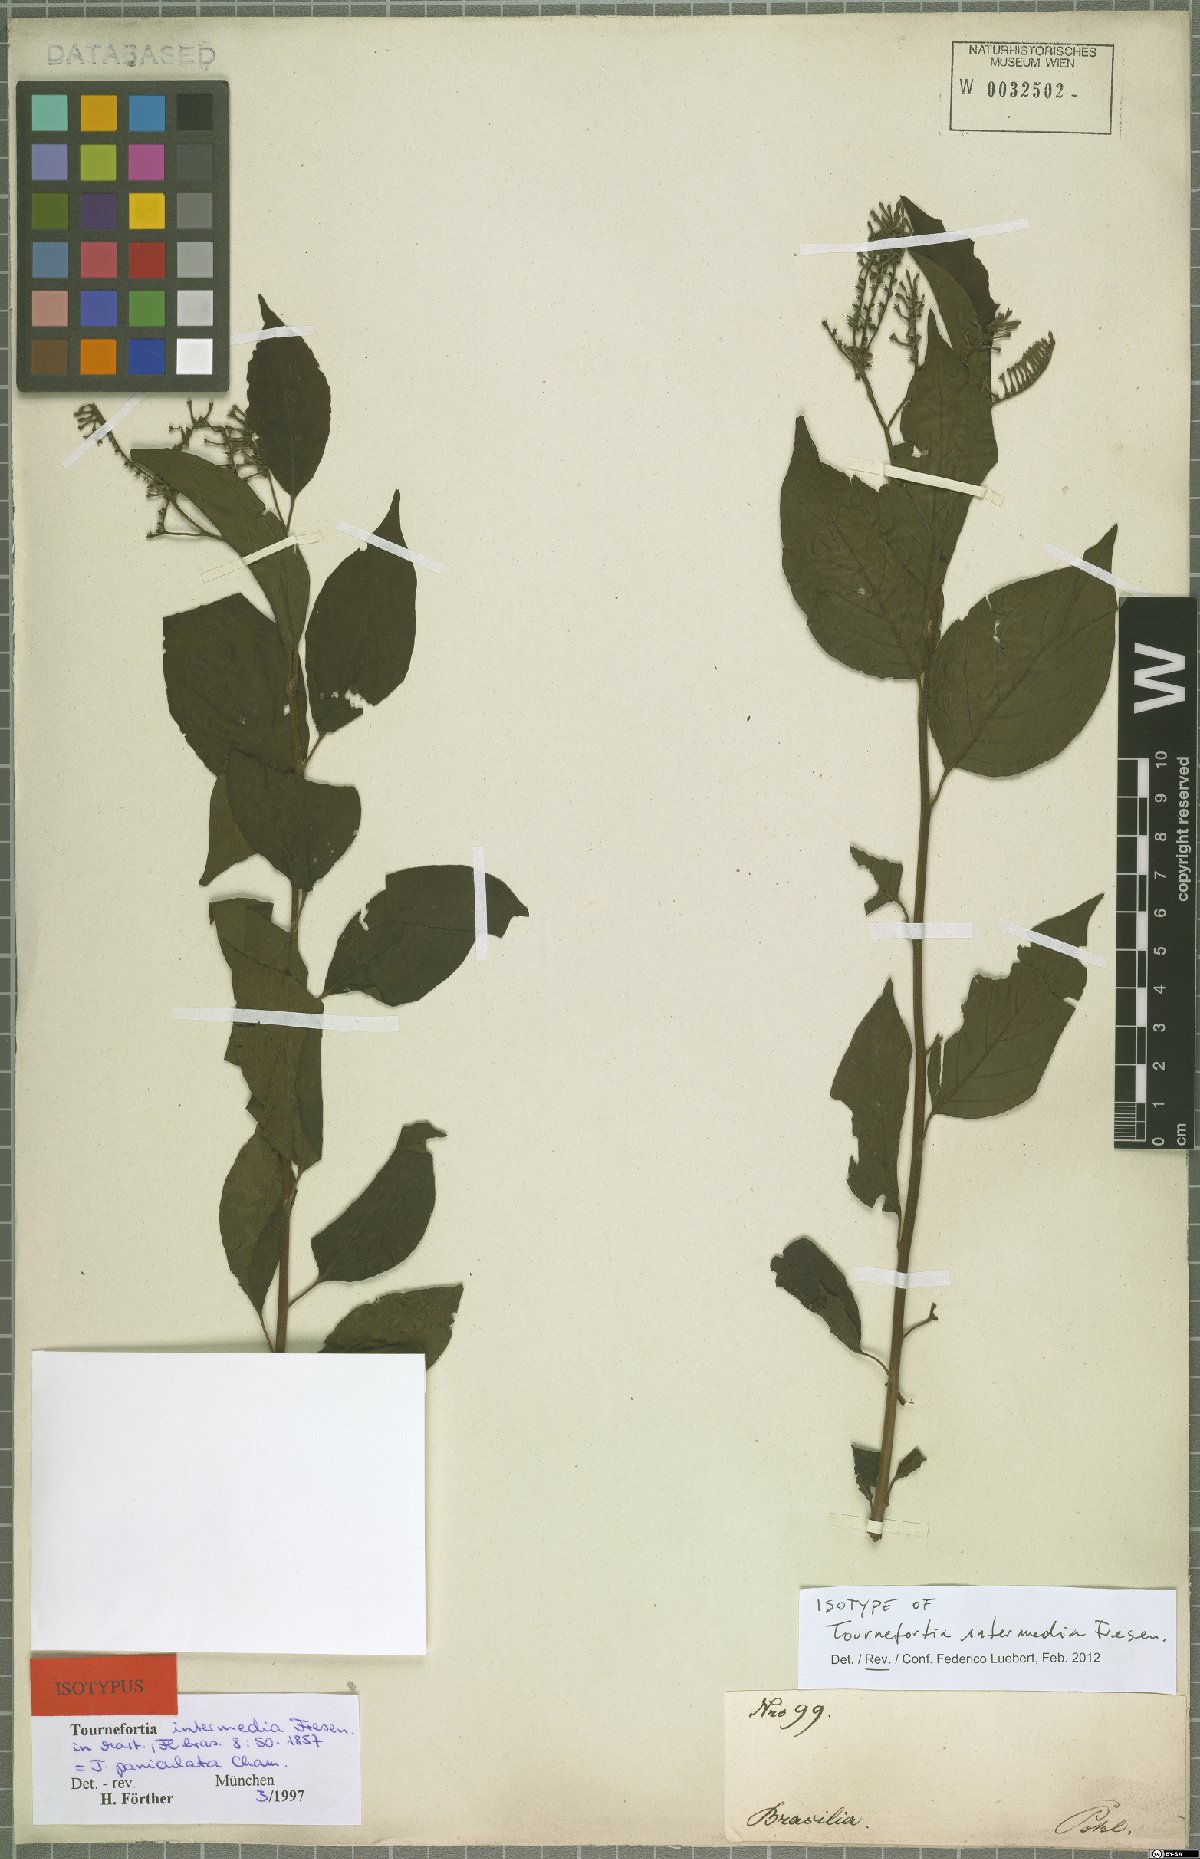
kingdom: Plantae
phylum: Tracheophyta
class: Magnoliopsida
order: Boraginales
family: Heliotropiaceae
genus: Myriopus
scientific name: Myriopus paniculatus
